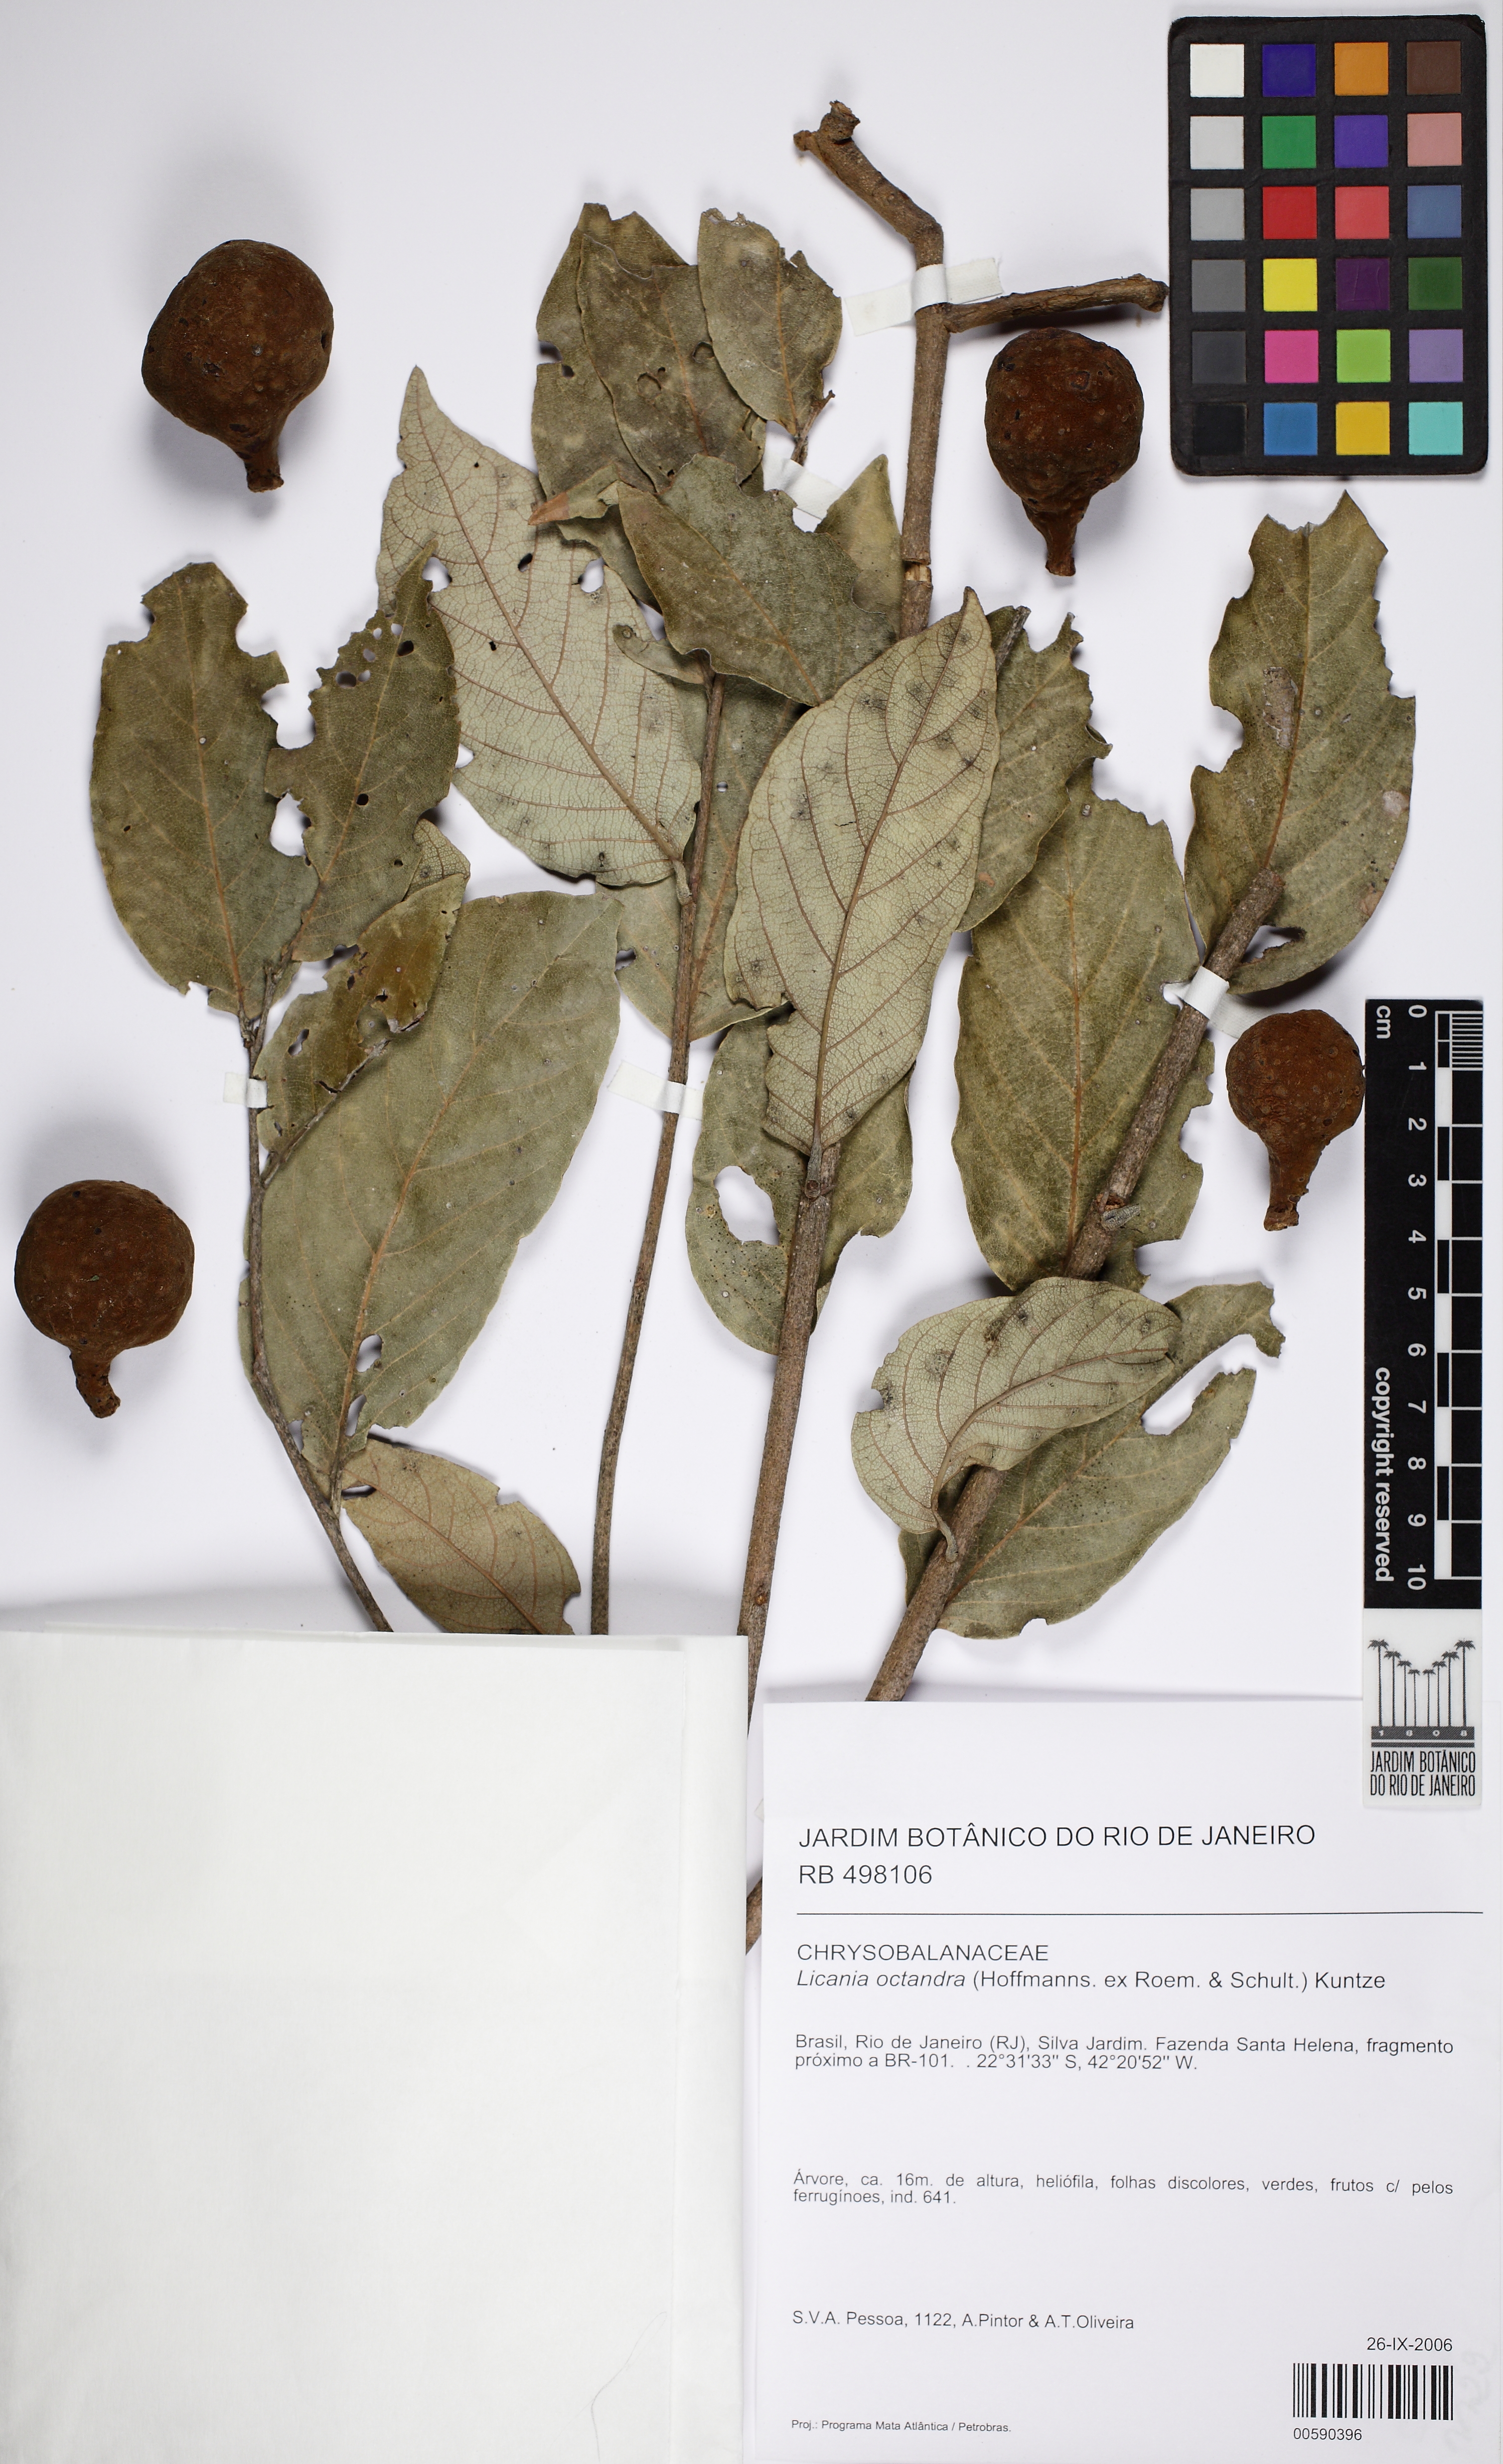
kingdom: Plantae
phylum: Tracheophyta
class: Magnoliopsida
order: Malpighiales
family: Chrysobalanaceae
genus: Leptobalanus
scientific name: Leptobalanus octandrus
